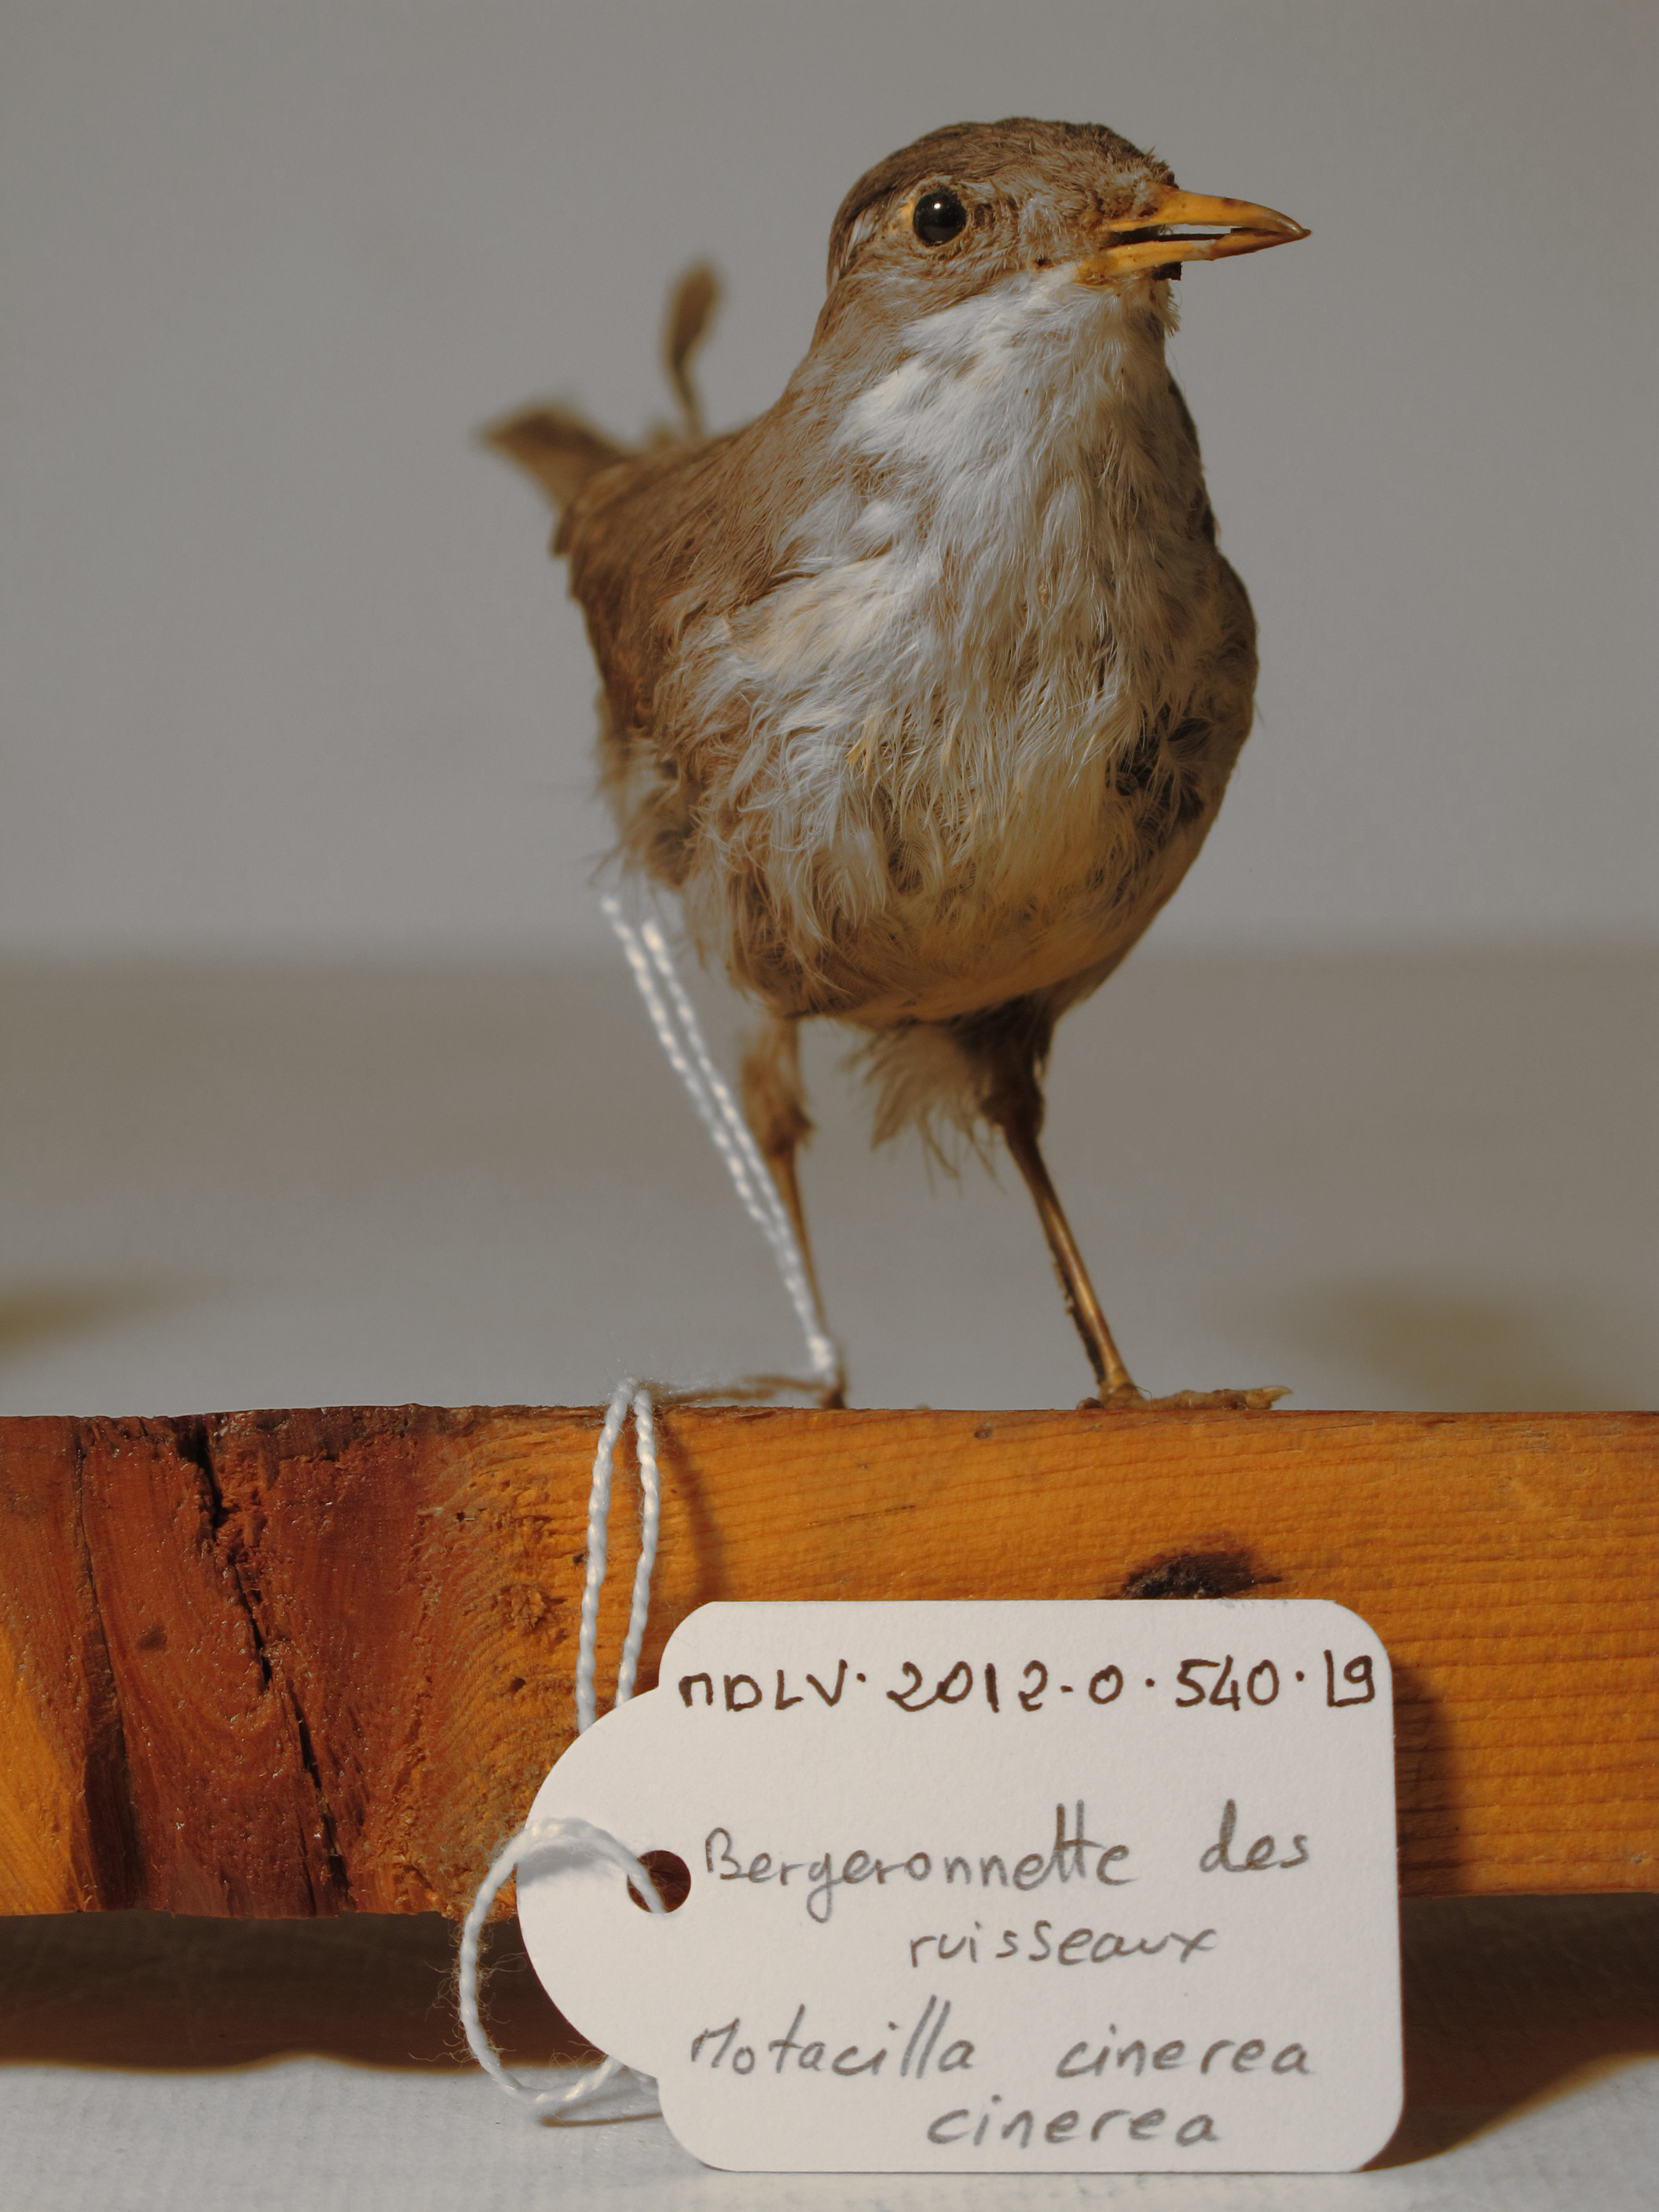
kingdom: Animalia
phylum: Chordata
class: Aves
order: Passeriformes
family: Motacillidae
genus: Motacilla
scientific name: Motacilla cinerea
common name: Grey Wagtail
